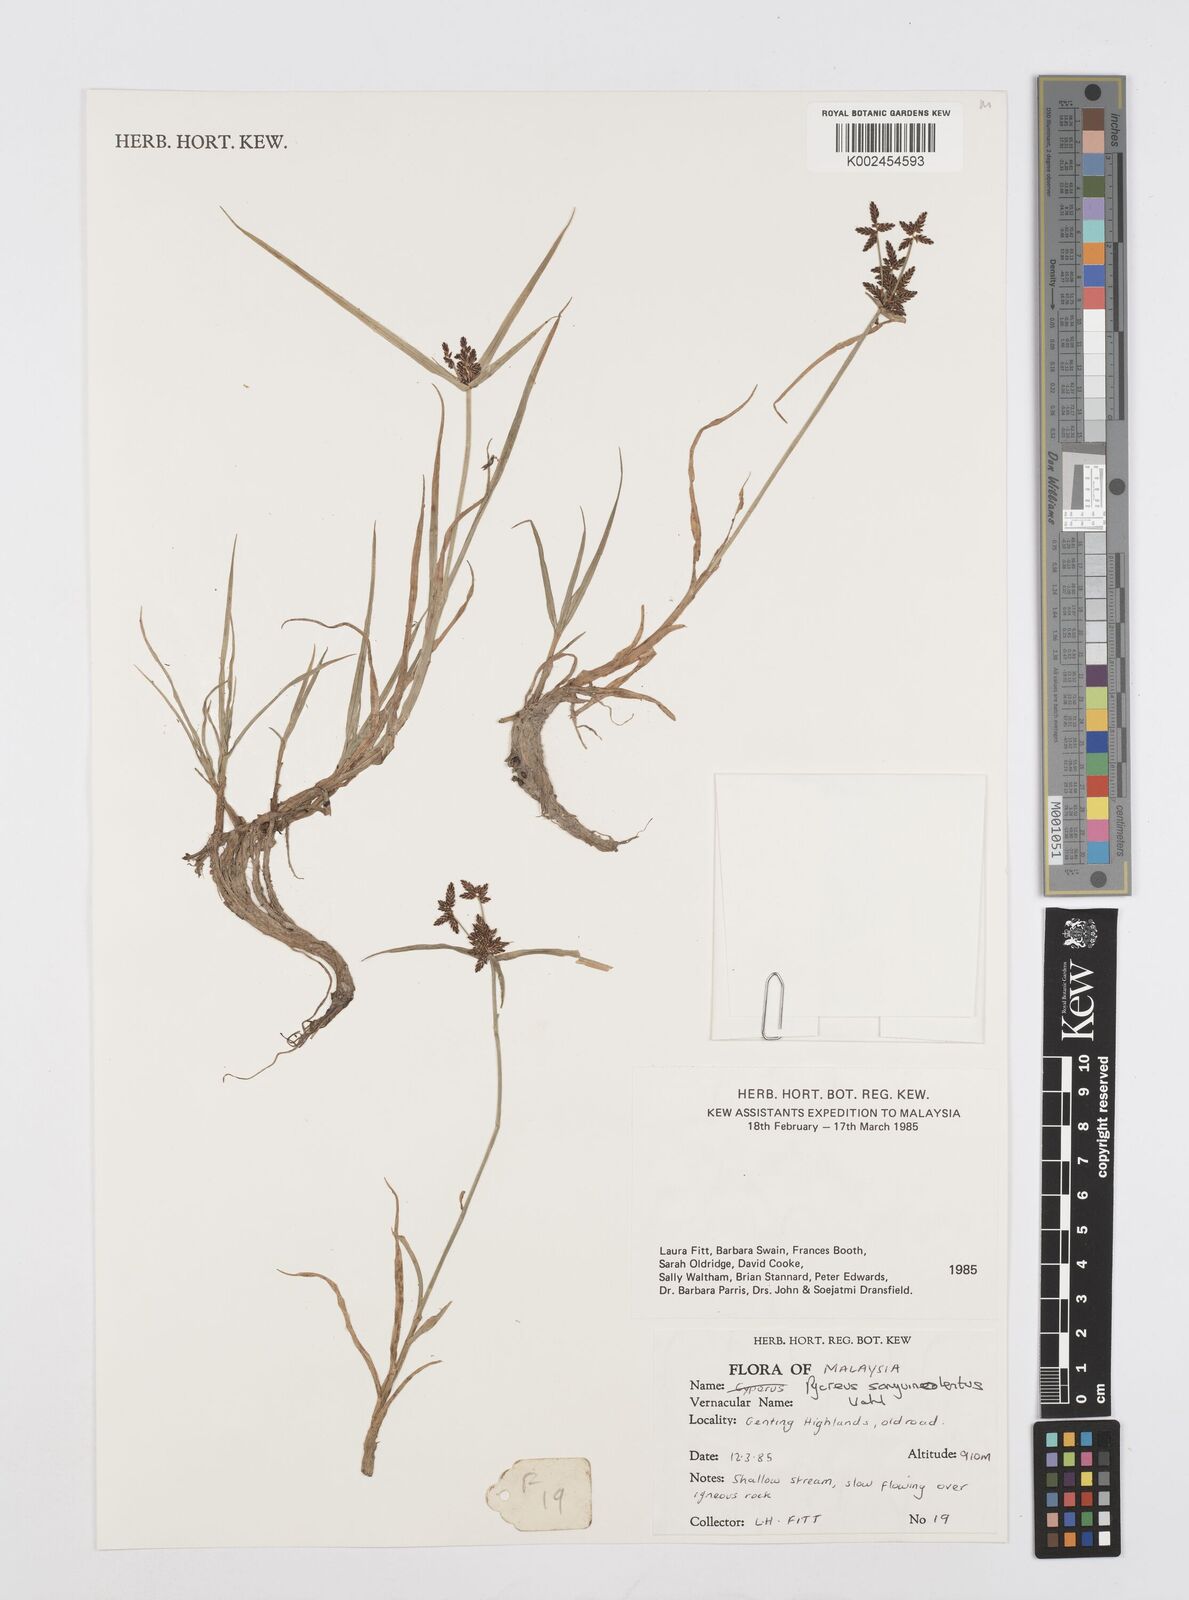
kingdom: Plantae
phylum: Tracheophyta
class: Liliopsida
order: Poales
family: Cyperaceae
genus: Cyperus
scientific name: Cyperus sanguinolentus
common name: Purpleglume flatsedge
